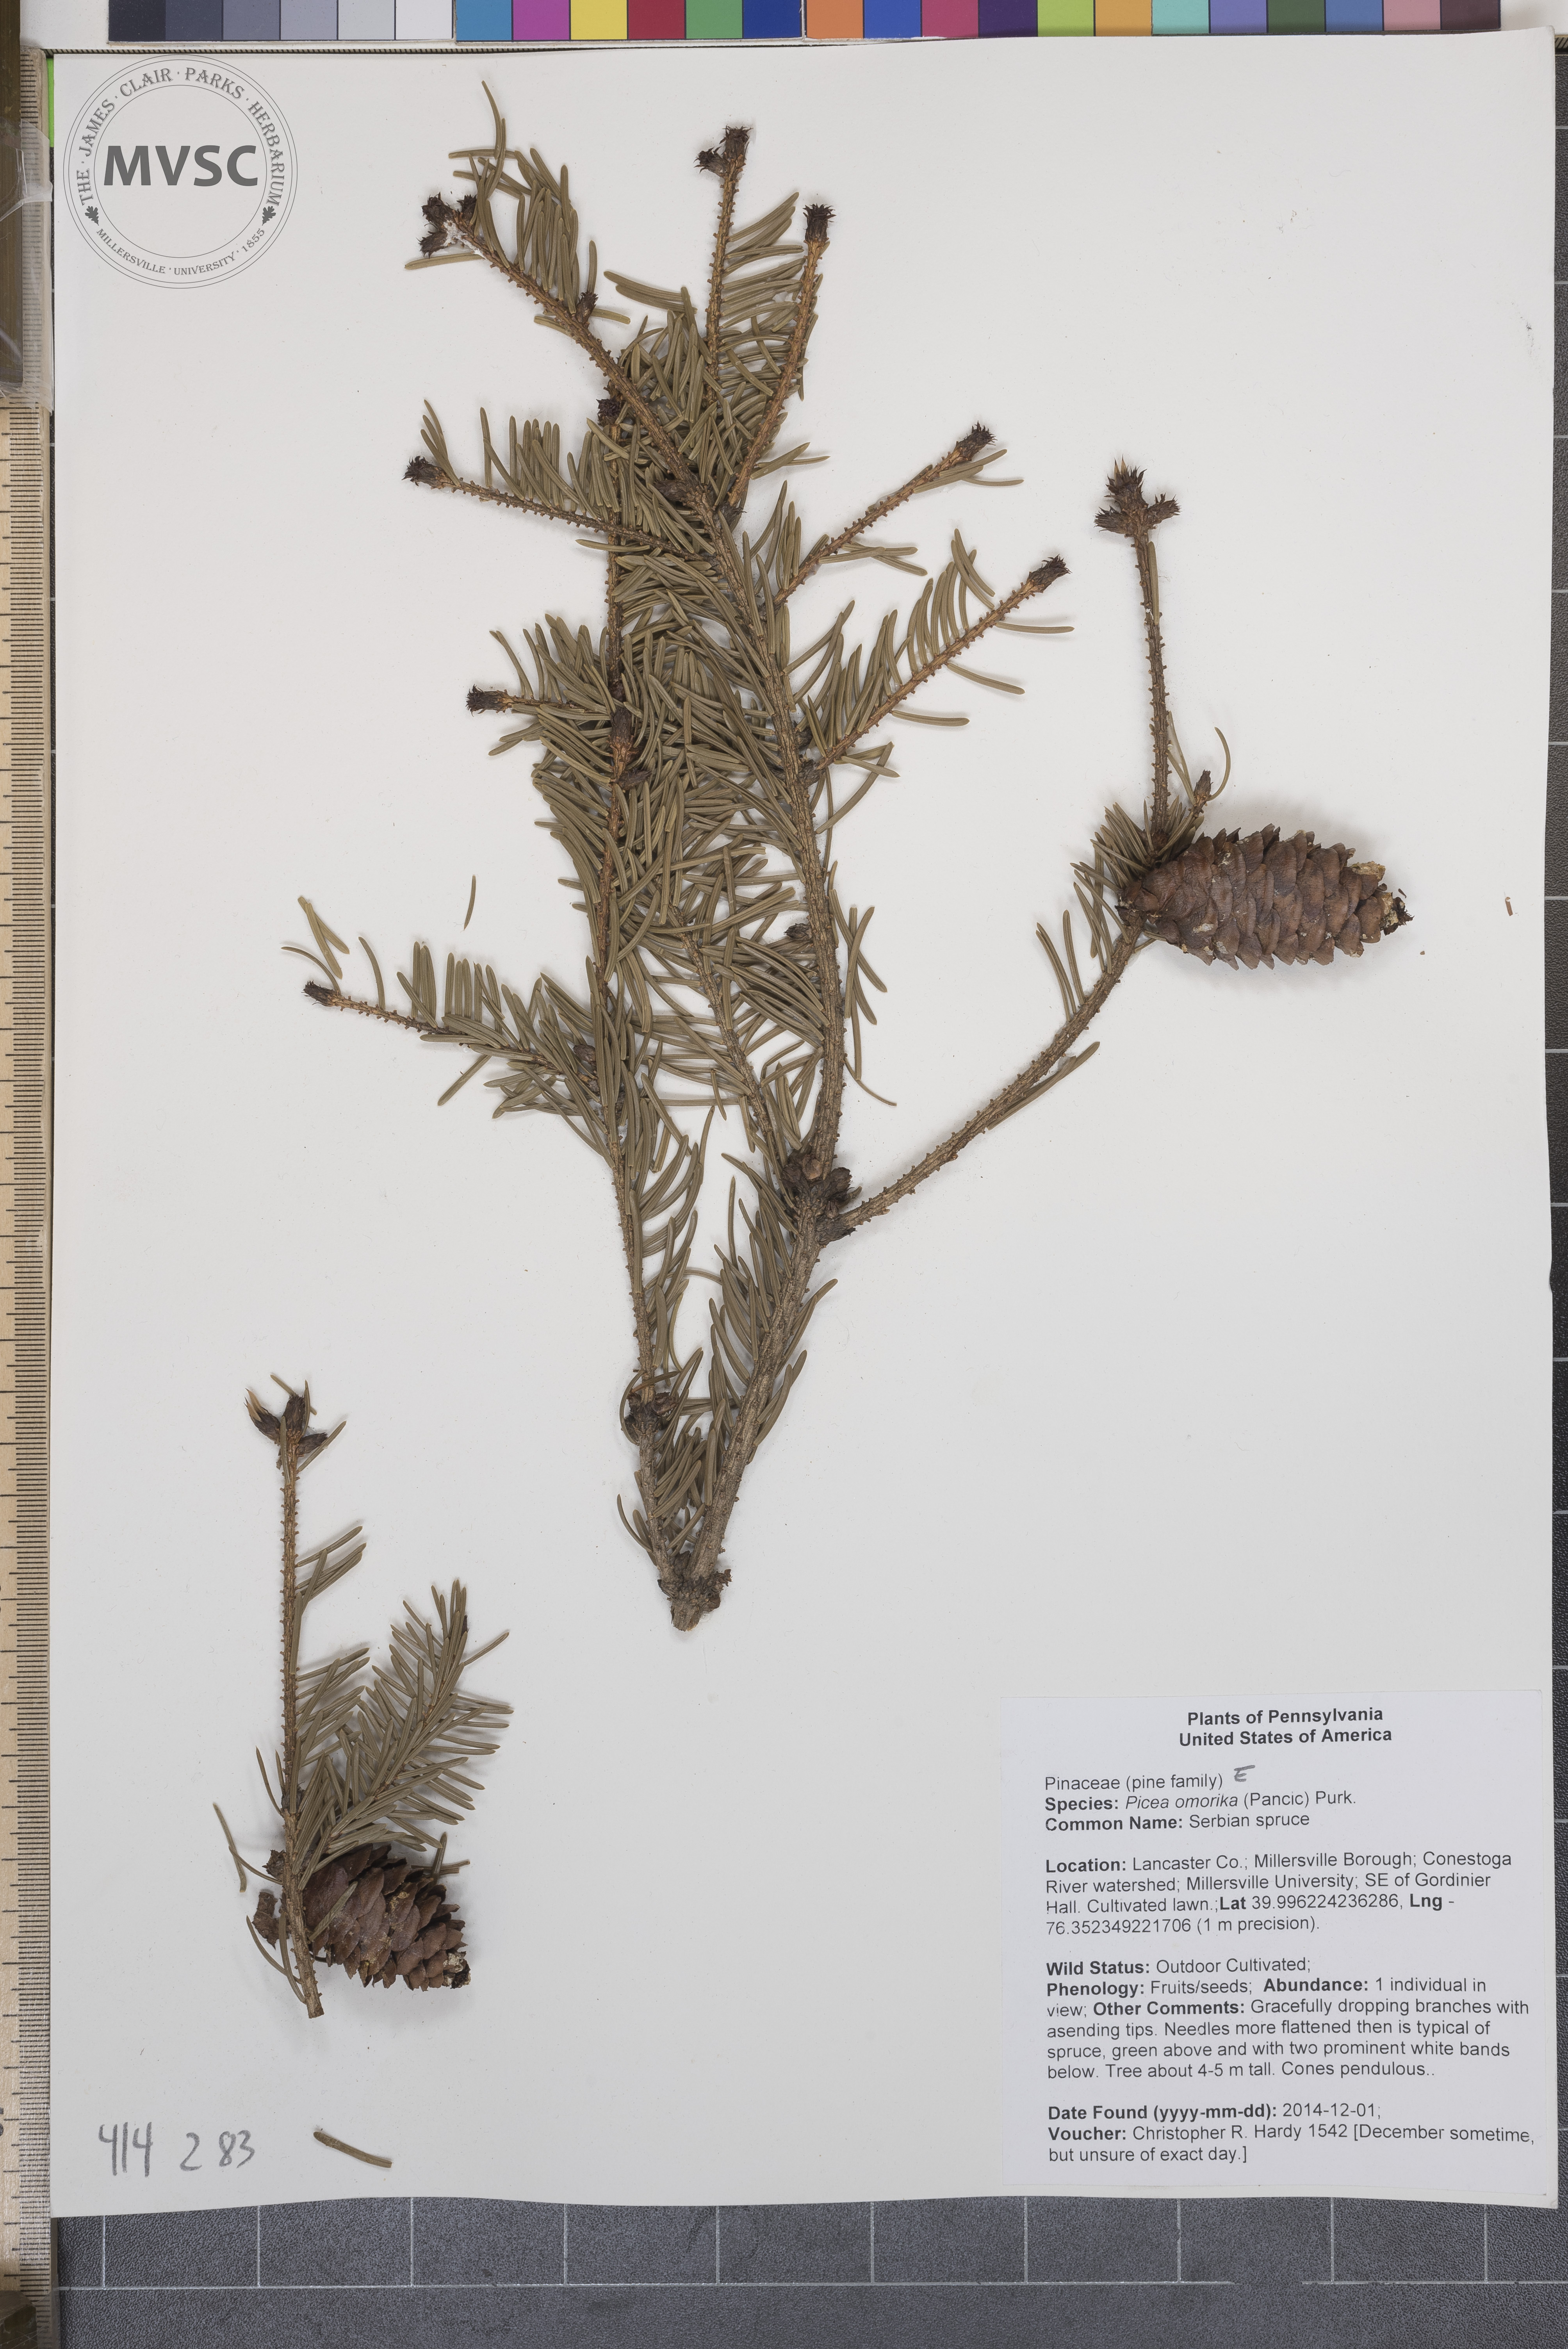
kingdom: Plantae
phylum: Tracheophyta
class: Pinopsida
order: Pinales
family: Pinaceae
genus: Picea
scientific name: Picea omorika
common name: Serbian spruce
